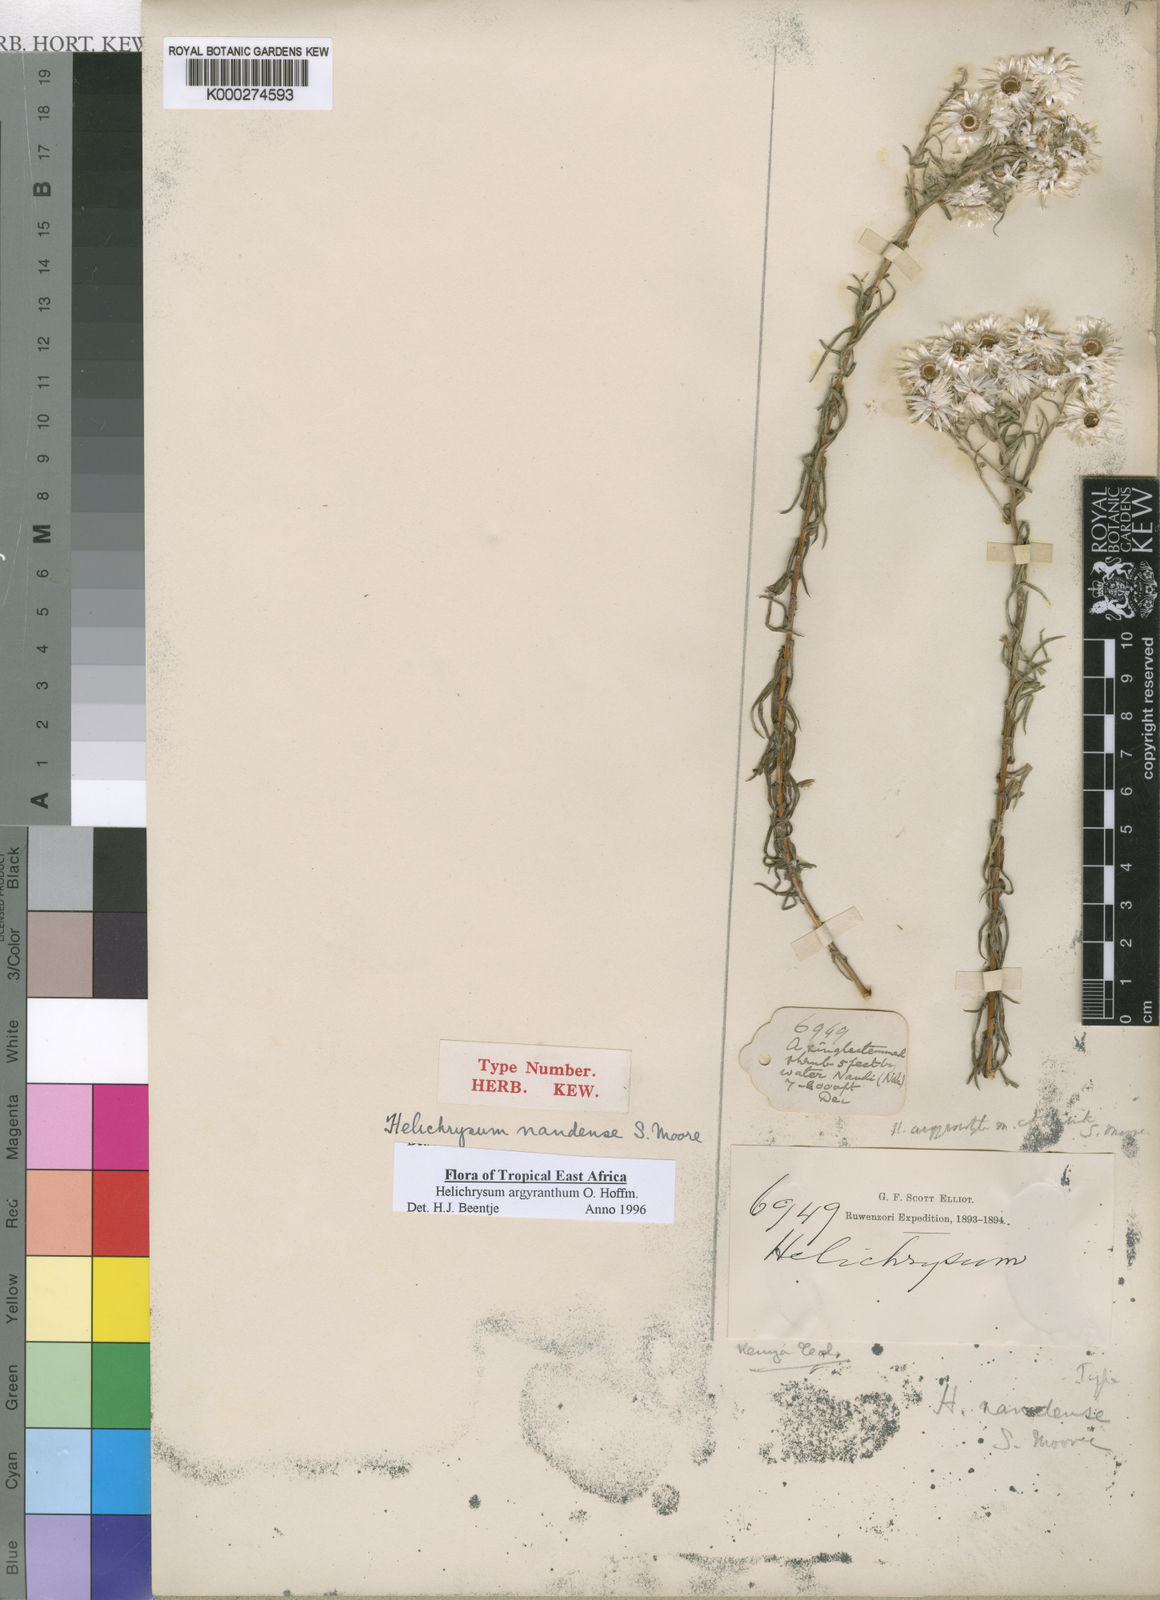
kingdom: Plantae
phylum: Tracheophyta
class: Magnoliopsida
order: Asterales
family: Asteraceae
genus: Helichrysum
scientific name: Helichrysum argyranthum
